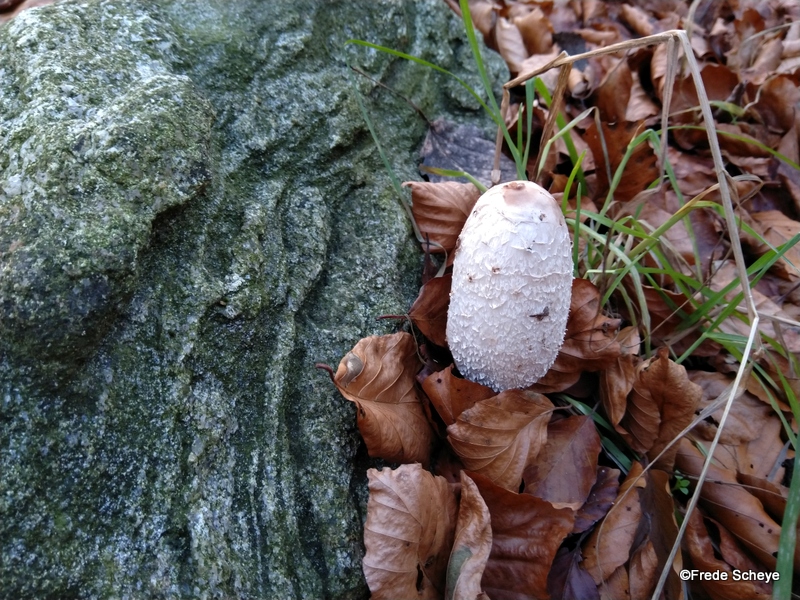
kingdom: Fungi
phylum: Basidiomycota
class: Agaricomycetes
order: Agaricales
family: Agaricaceae
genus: Coprinus
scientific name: Coprinus comatus
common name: stor parykhat
